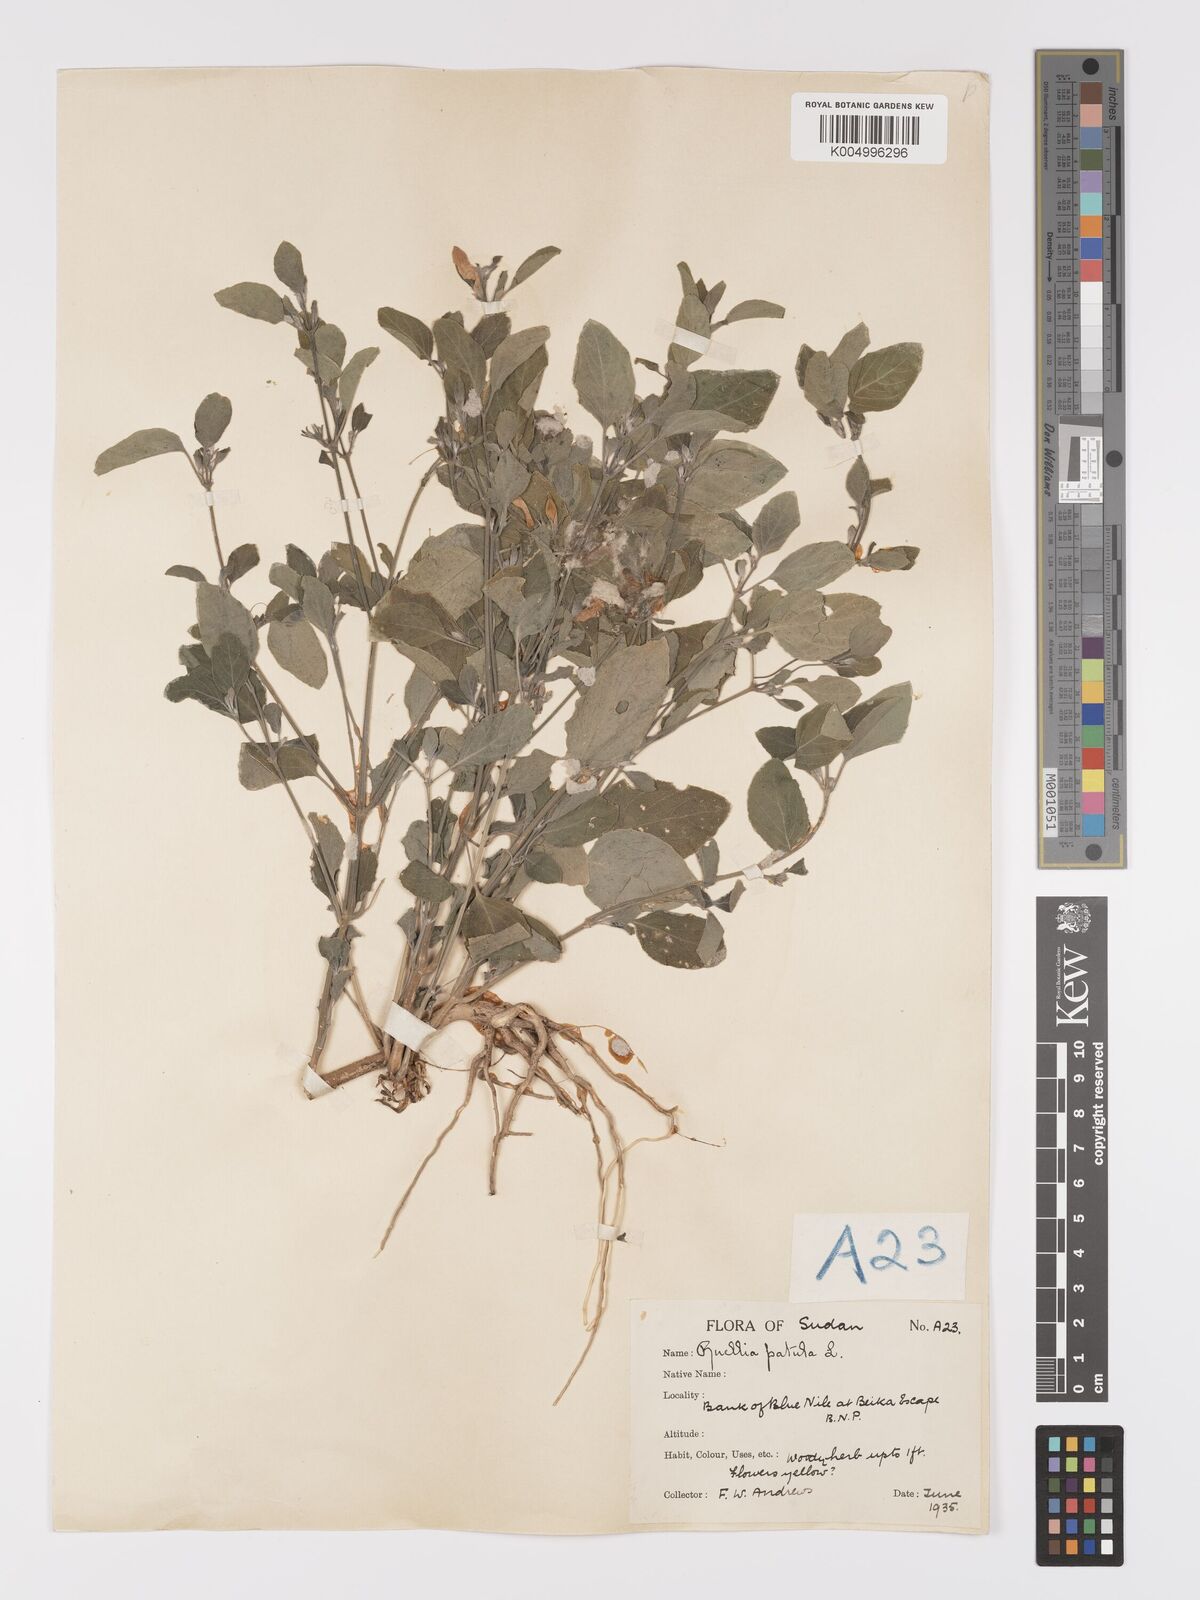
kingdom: Plantae
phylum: Tracheophyta
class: Magnoliopsida
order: Lamiales
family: Acanthaceae
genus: Ruellia
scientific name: Ruellia patula
